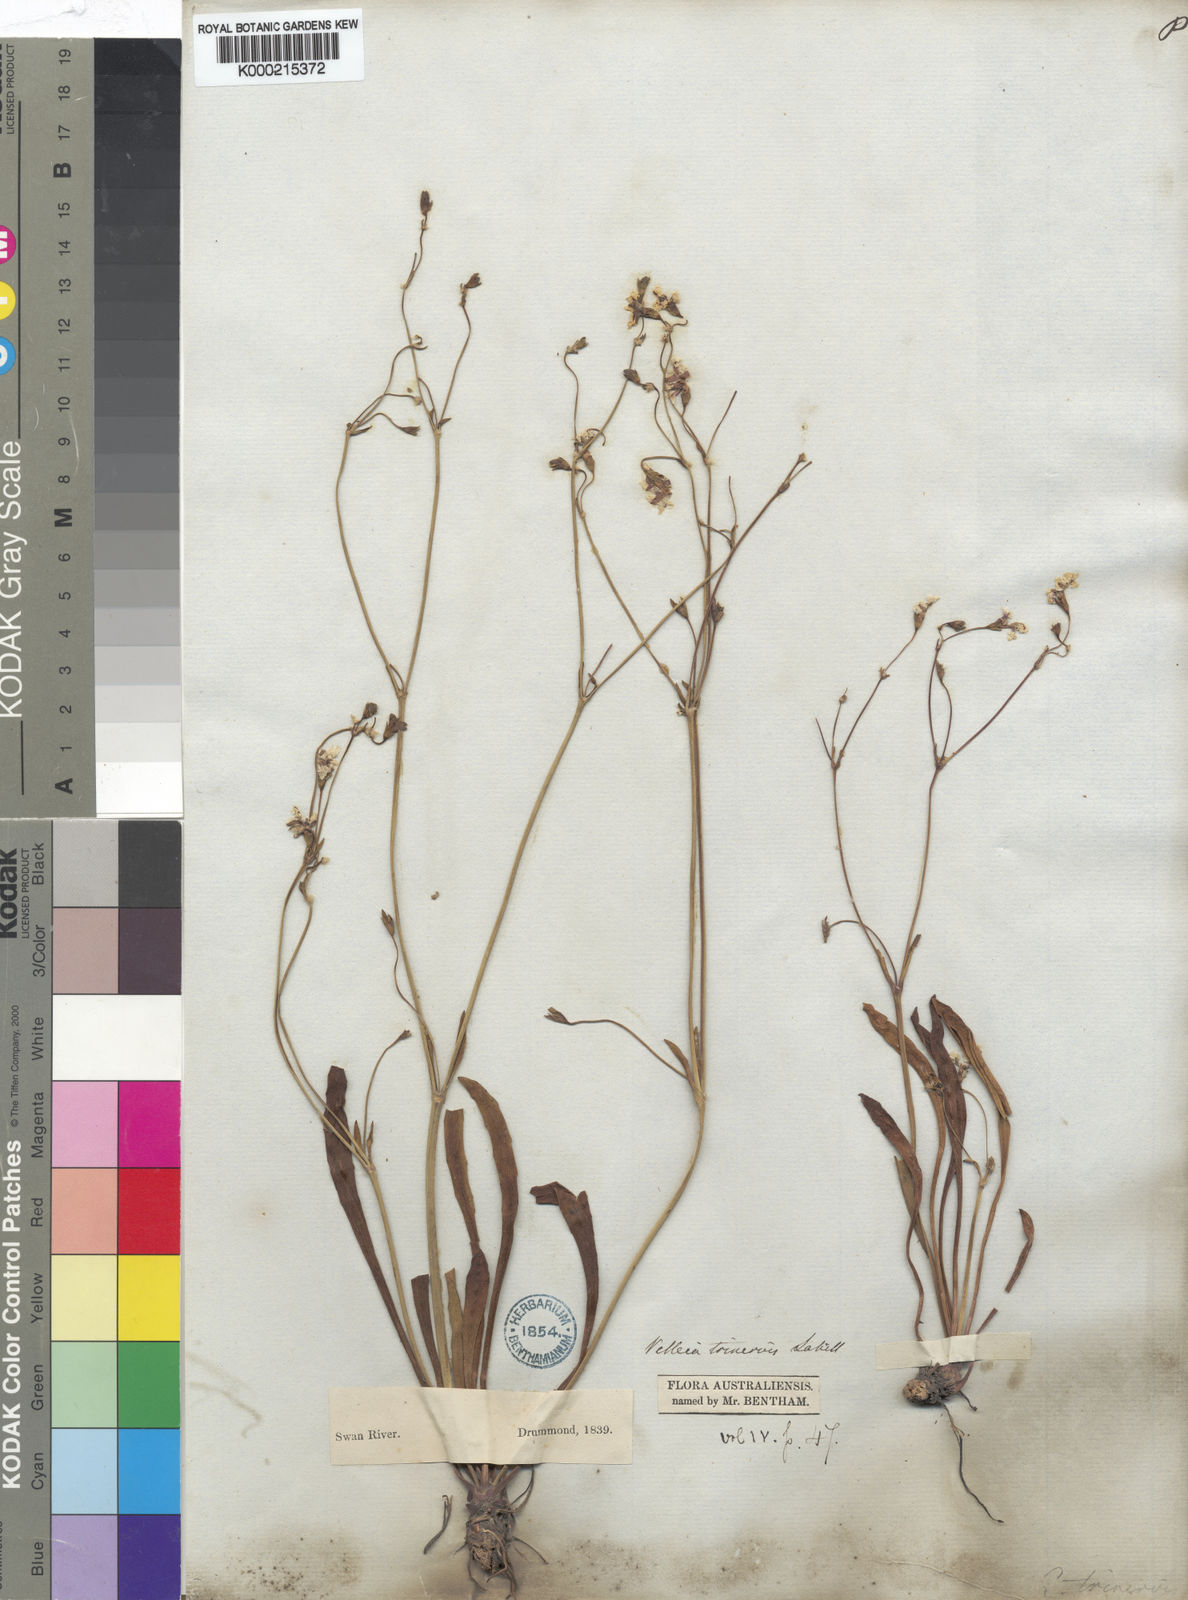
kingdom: Plantae
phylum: Tracheophyta
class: Magnoliopsida
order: Asterales
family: Goodeniaceae
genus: Goodenia
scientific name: Goodenia trinervis
